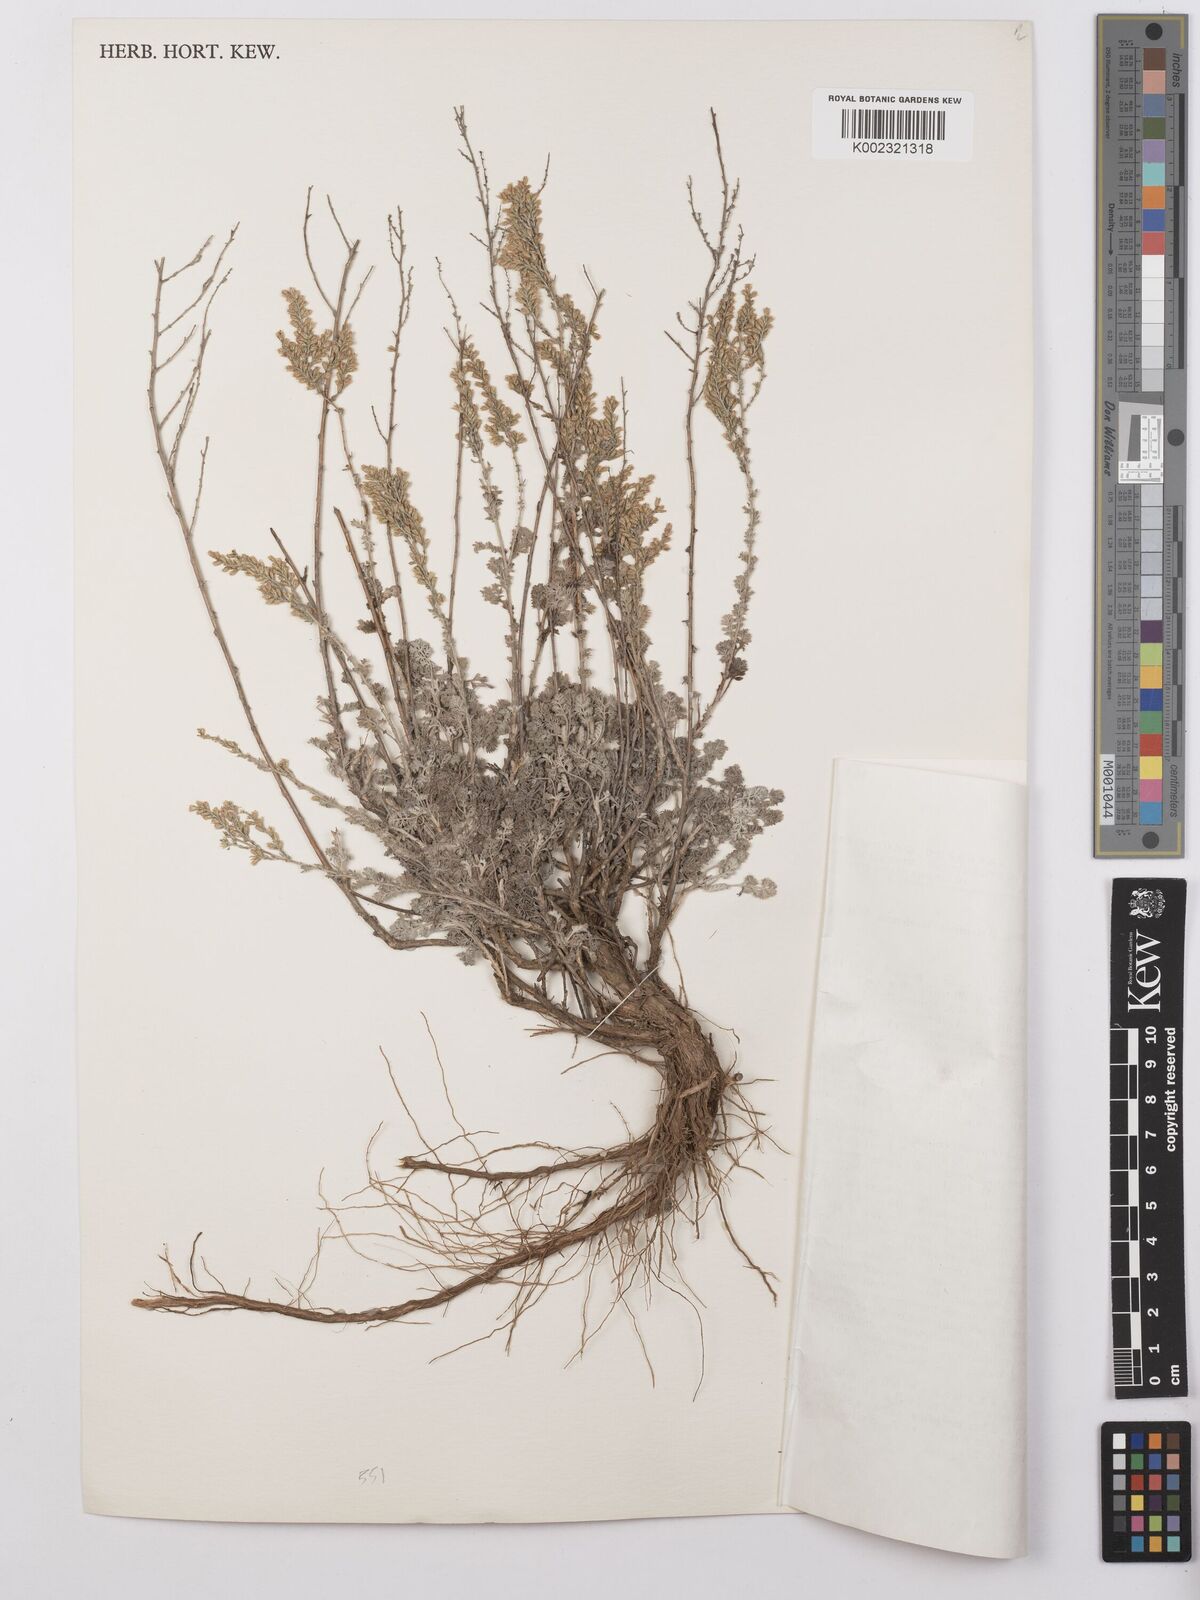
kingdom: Plantae
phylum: Tracheophyta
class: Magnoliopsida
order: Asterales
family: Asteraceae
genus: Artemisia
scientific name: Artemisia taurica
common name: Tauric wormwood
